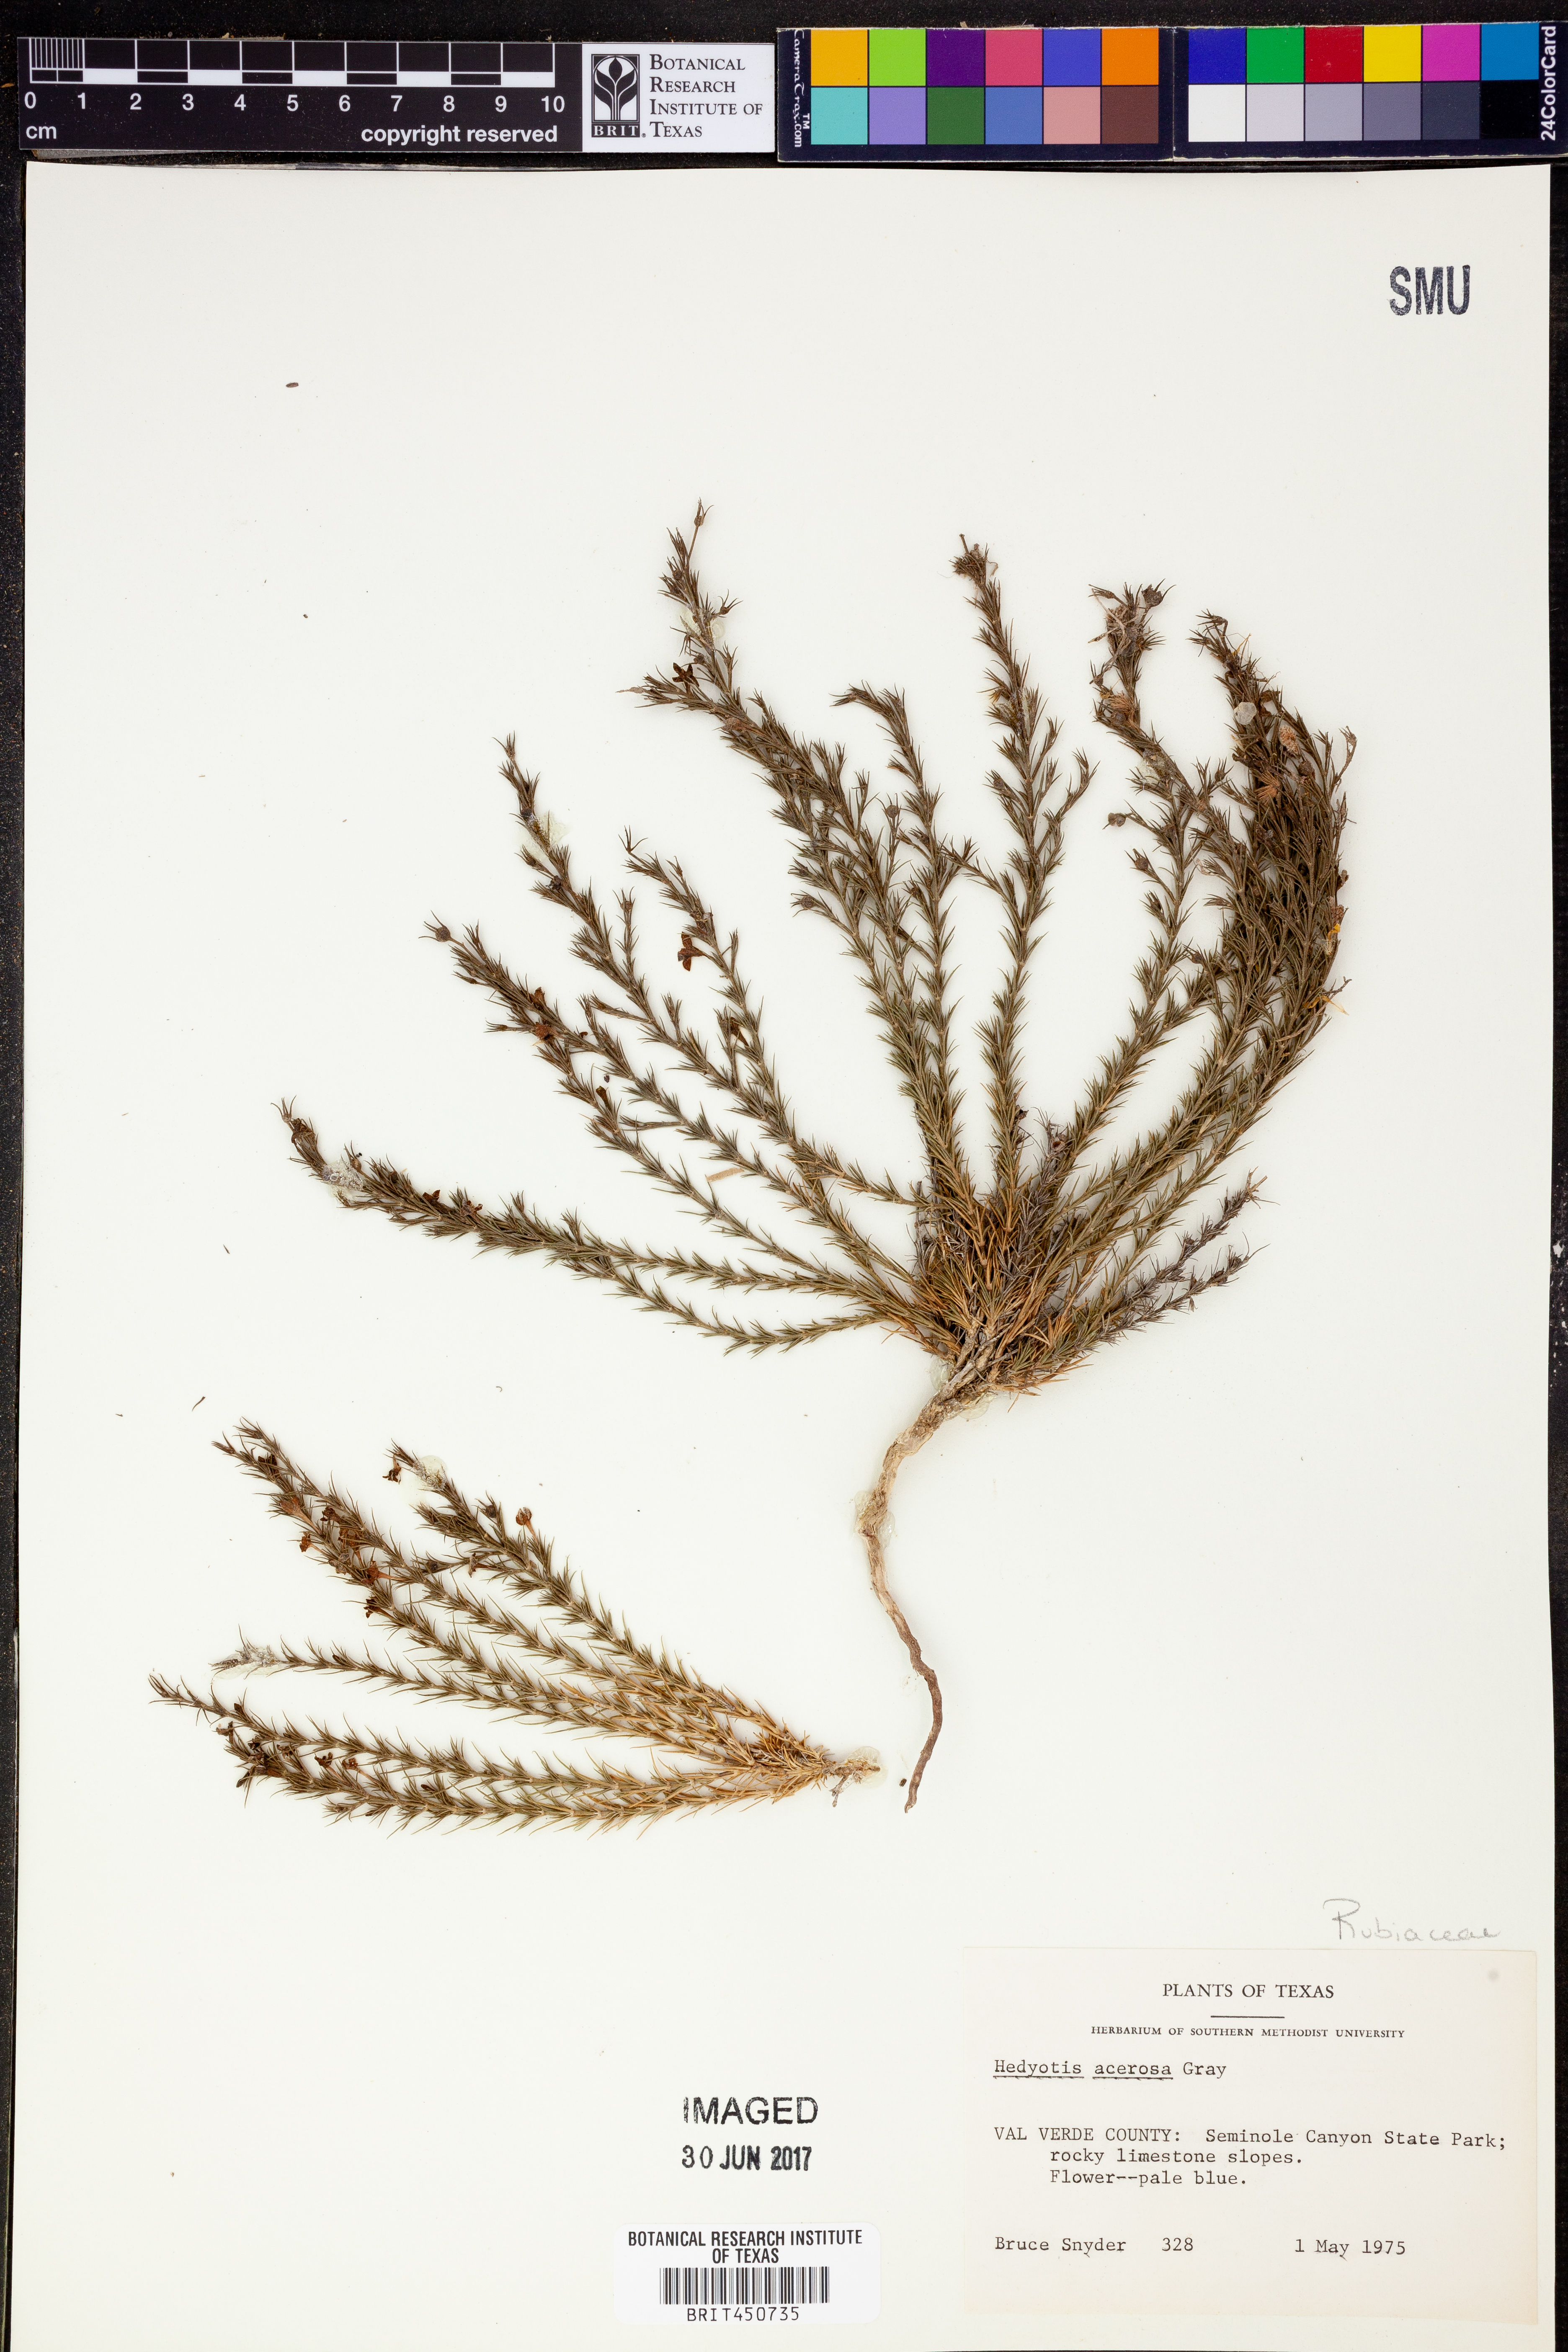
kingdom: Plantae
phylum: Tracheophyta
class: Magnoliopsida
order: Gentianales
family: Rubiaceae
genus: Houstonia
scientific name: Houstonia acerosa
